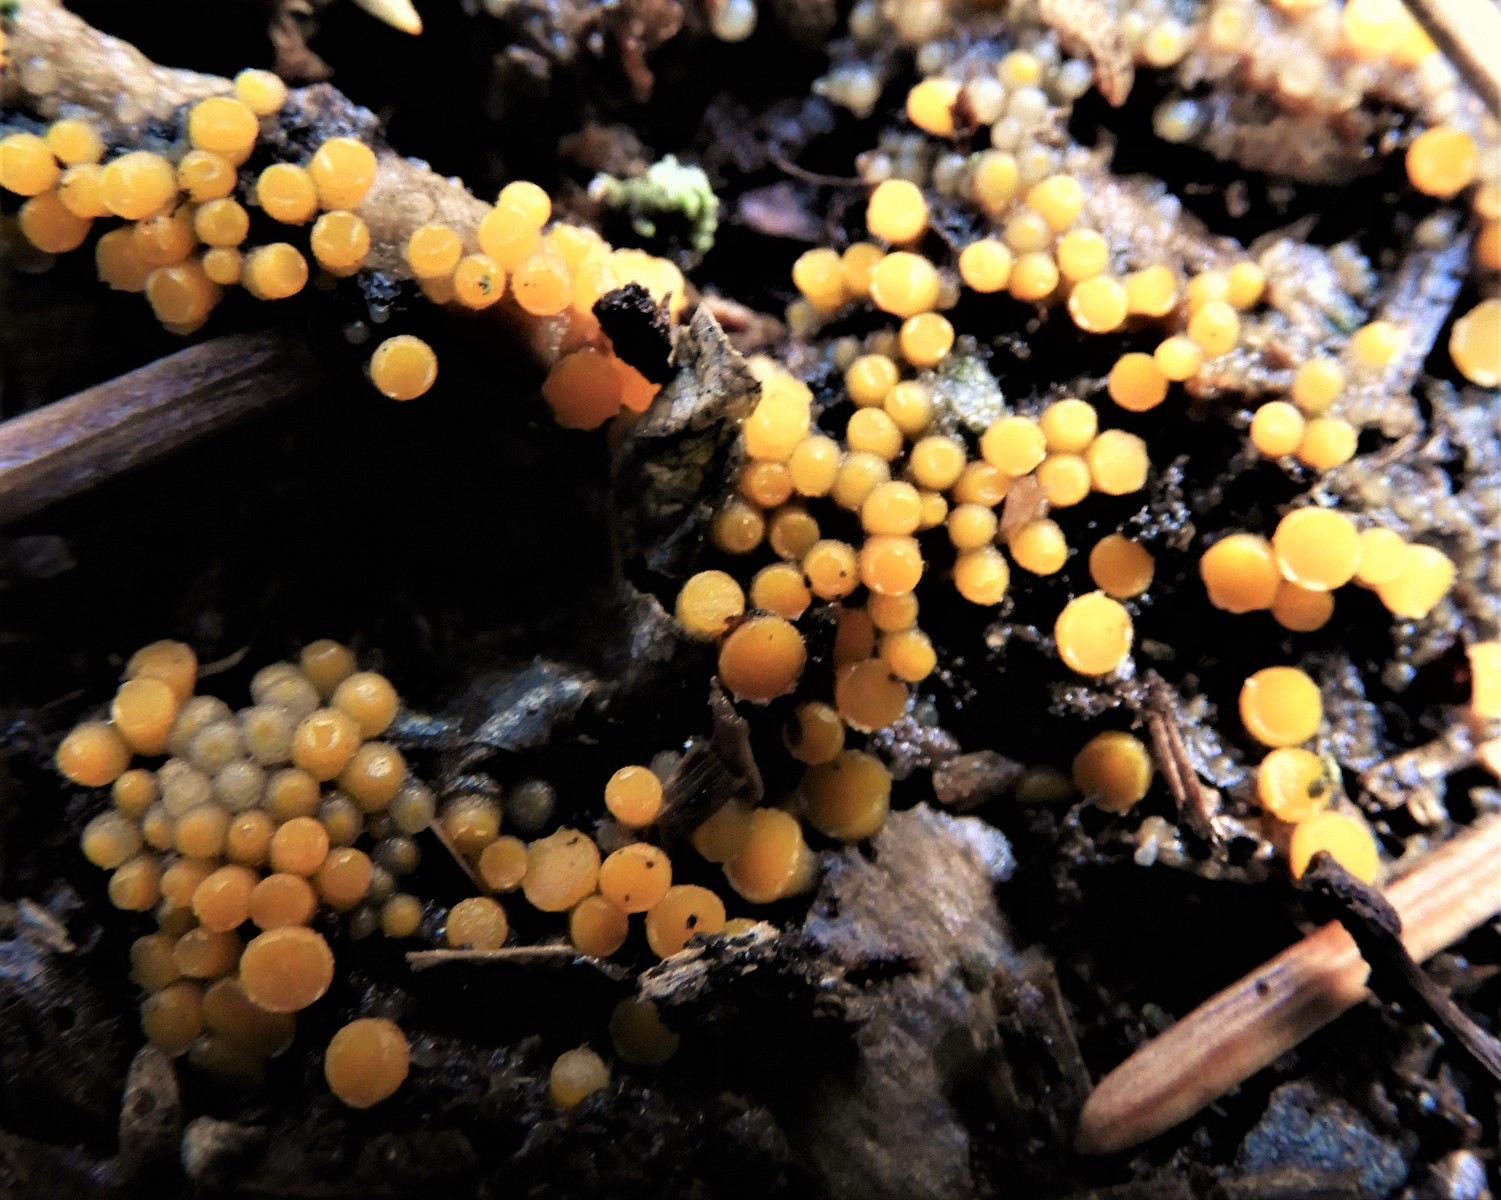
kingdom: Fungi
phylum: Ascomycota
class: Pezizomycetes
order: Pezizales
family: Pyronemataceae
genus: Byssonectria
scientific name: Byssonectria terrestris
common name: hjortebæger
